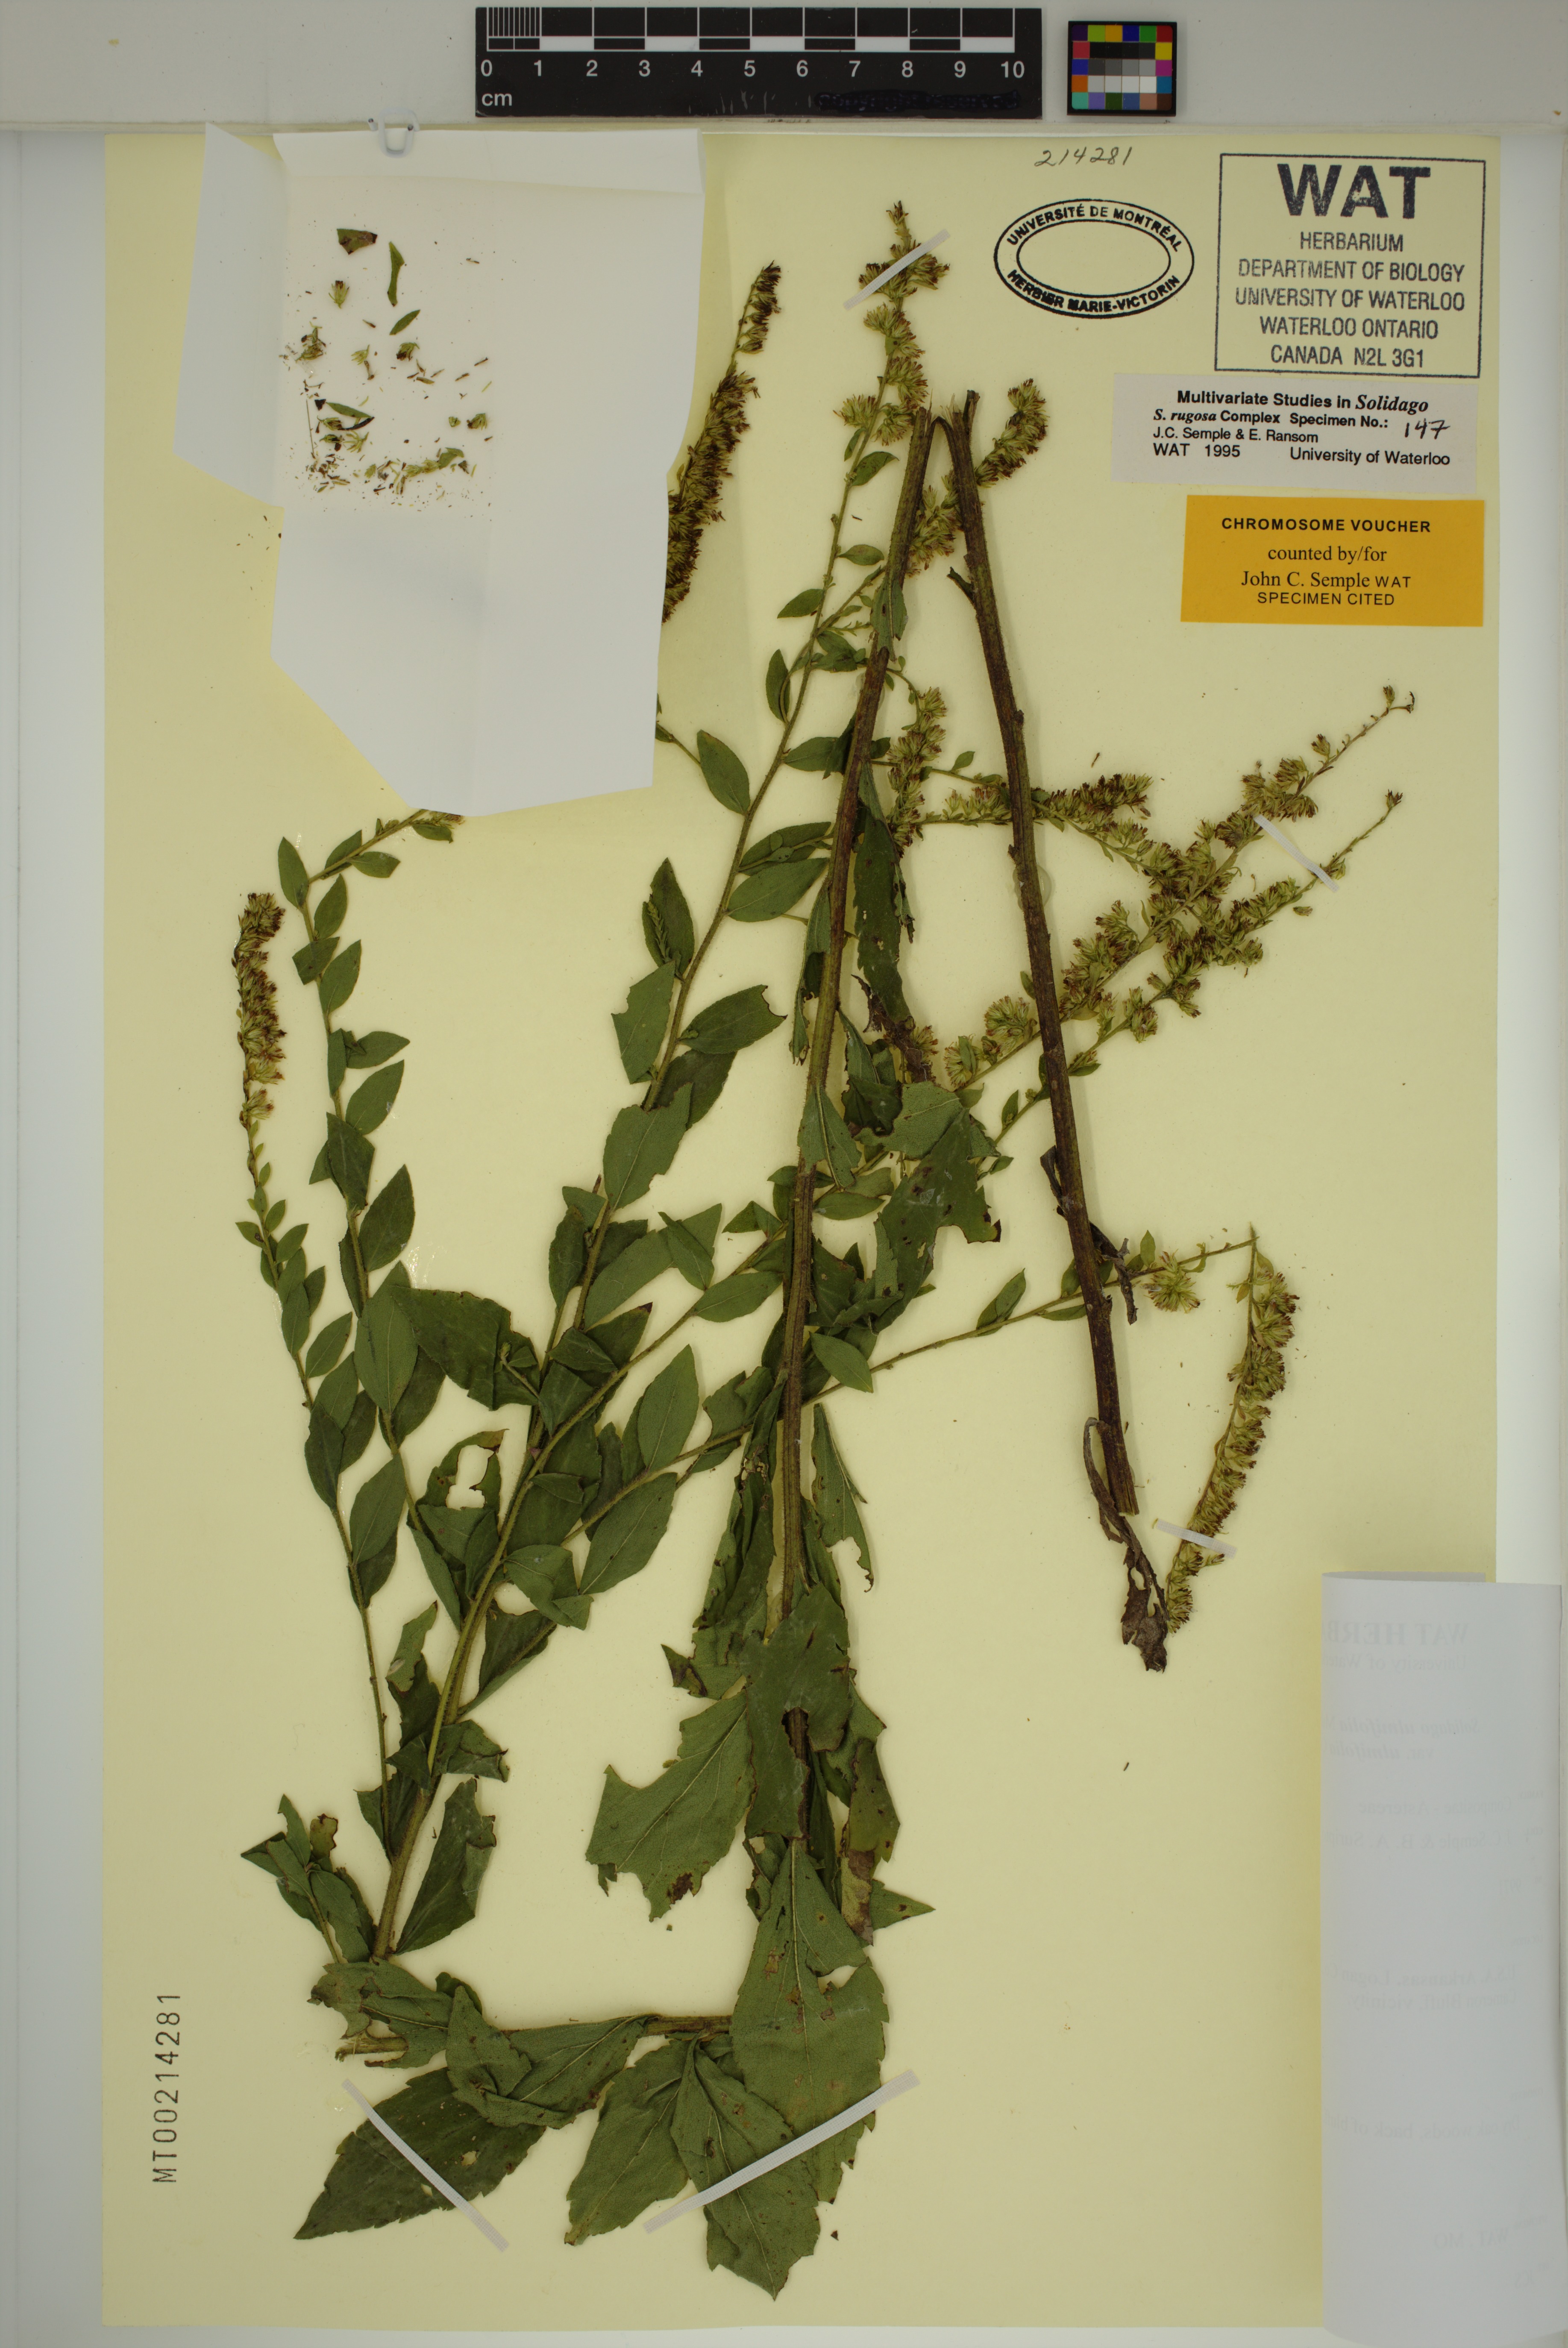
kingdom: Plantae
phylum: Tracheophyta
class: Magnoliopsida
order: Asterales
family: Asteraceae
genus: Solidago
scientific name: Solidago ulmifolia
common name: Elm-leaf goldenrod
